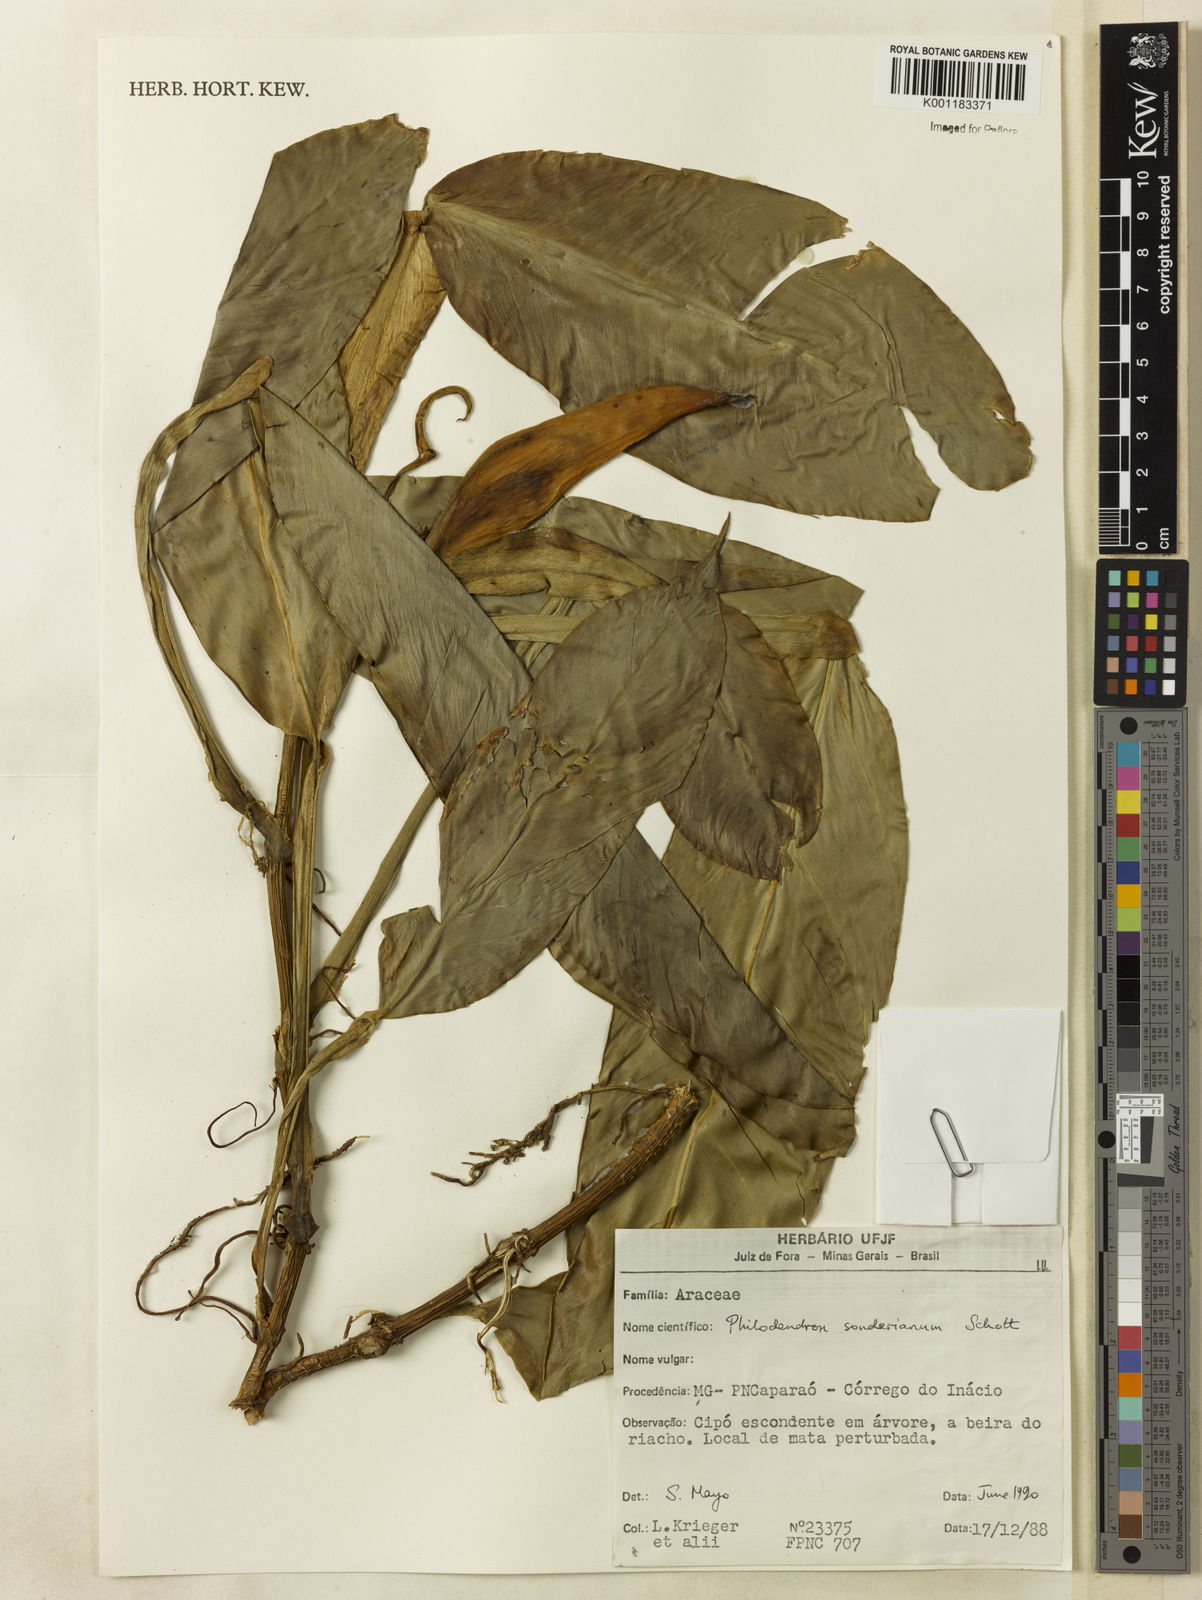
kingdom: Plantae
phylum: Tracheophyta
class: Liliopsida
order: Alismatales
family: Araceae
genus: Philodendron
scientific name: Philodendron sonderianum
